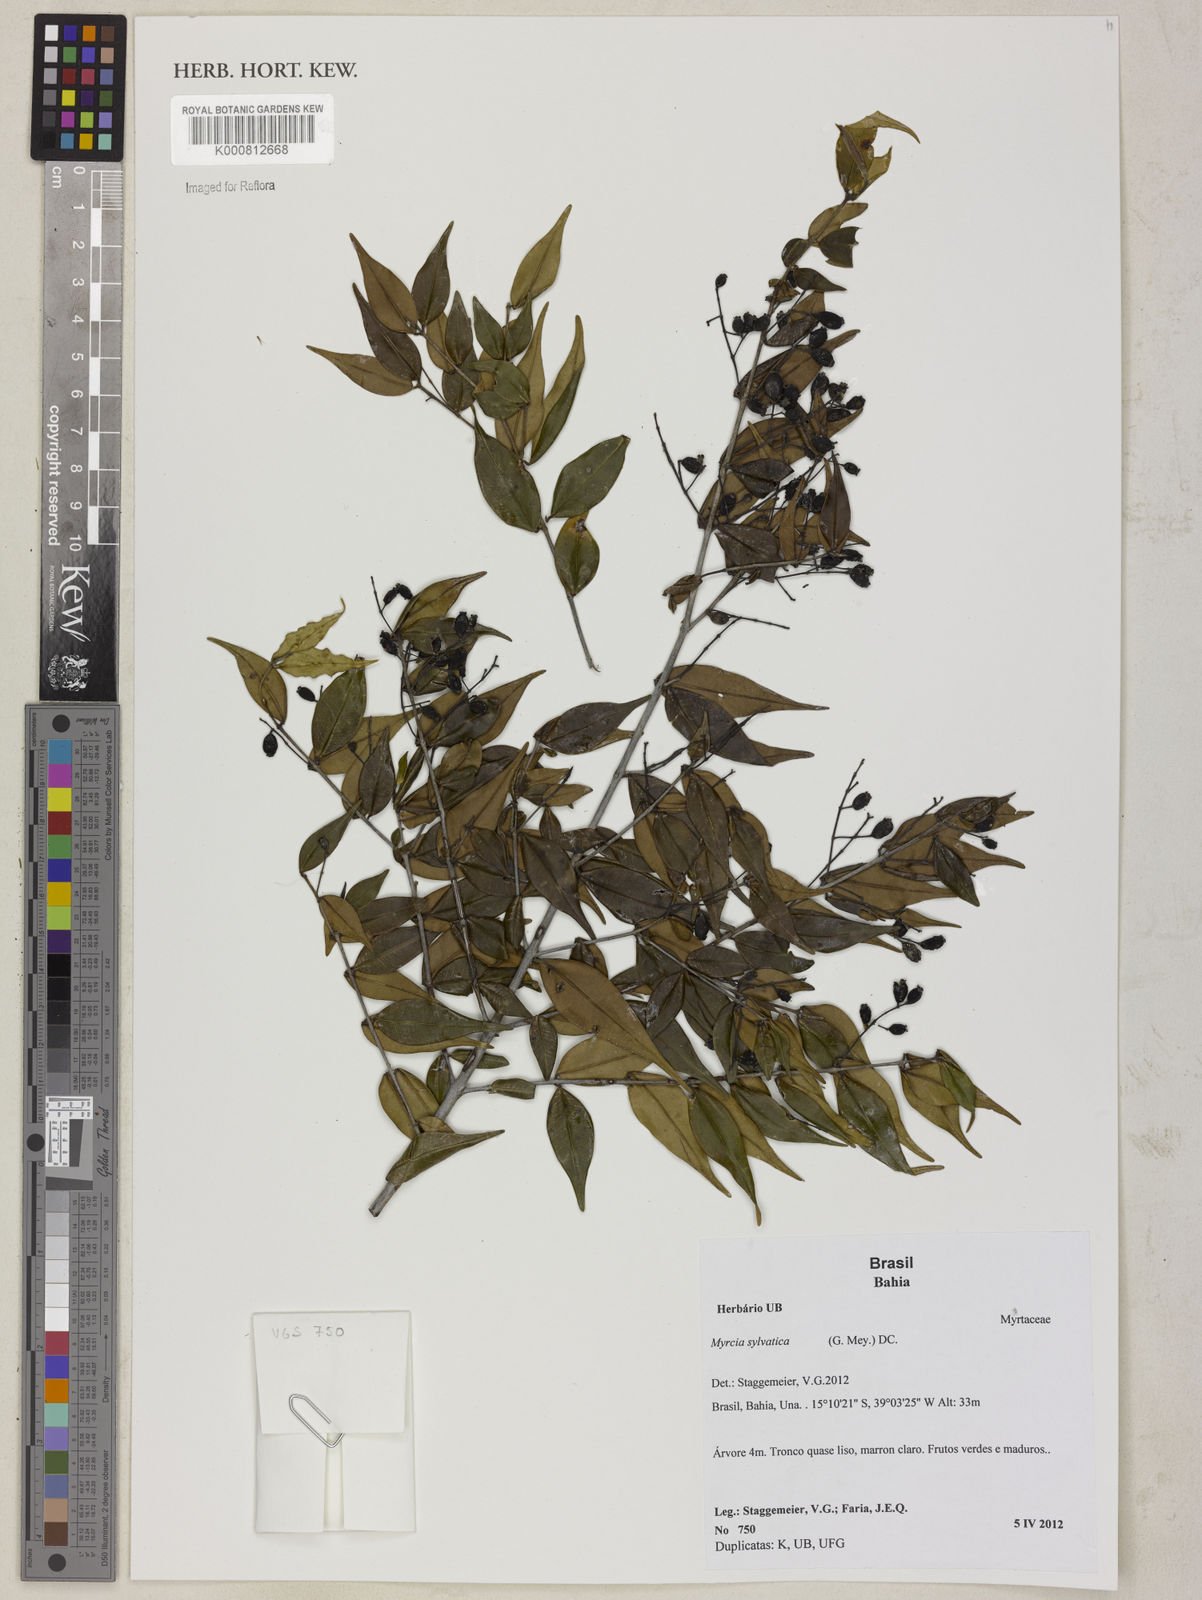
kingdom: Plantae
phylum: Tracheophyta
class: Magnoliopsida
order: Myrtales
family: Myrtaceae
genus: Myrcia
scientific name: Myrcia sylvatica
